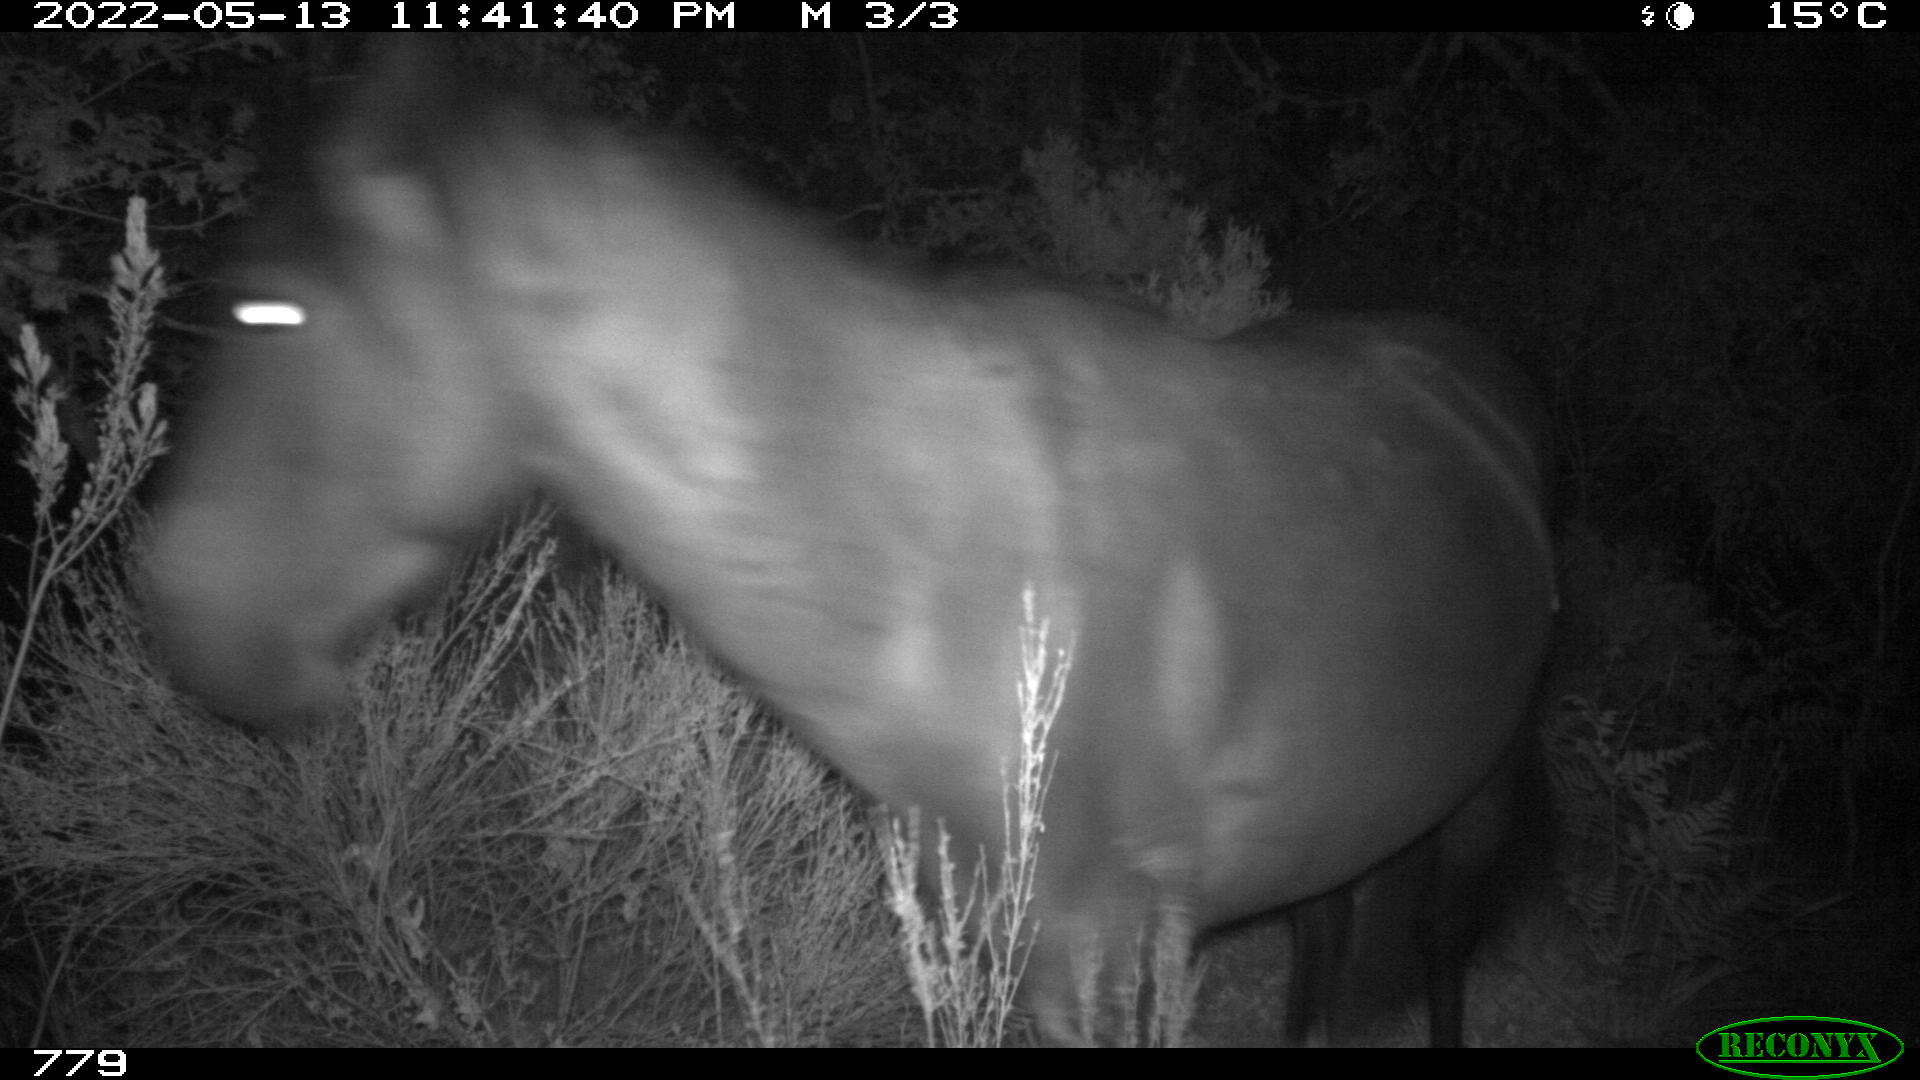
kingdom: Animalia
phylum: Chordata
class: Mammalia
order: Perissodactyla
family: Equidae
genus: Equus
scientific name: Equus caballus
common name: Horse
